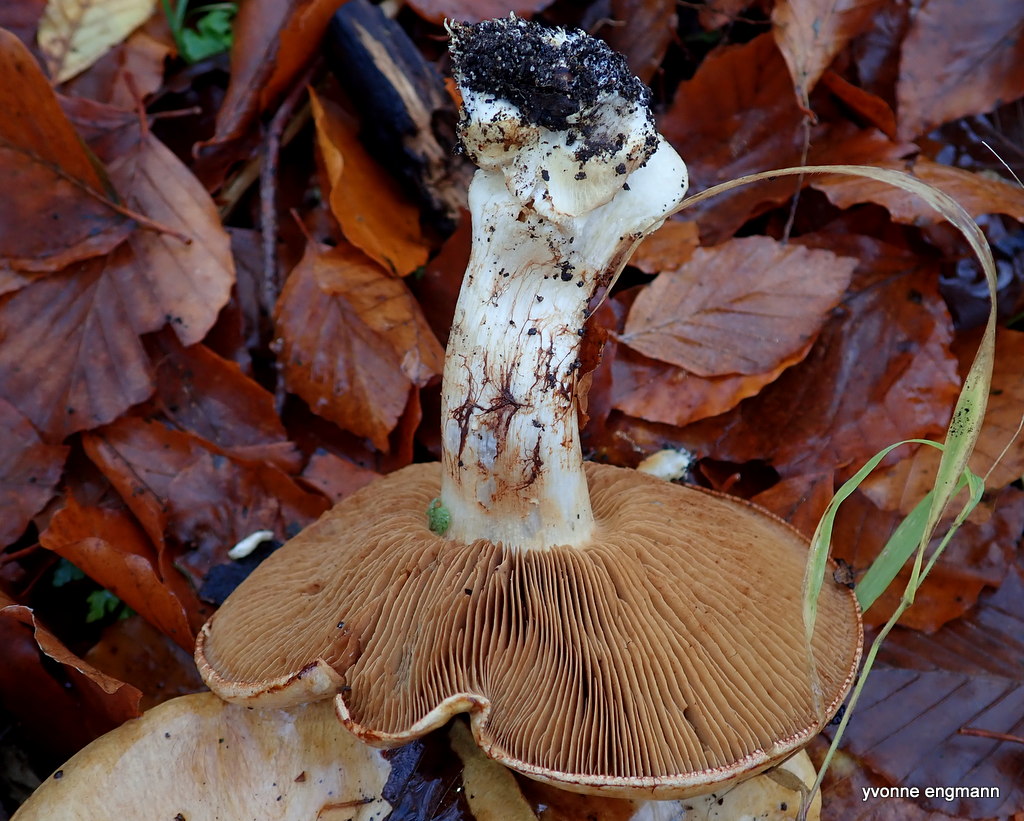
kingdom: Fungi
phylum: Basidiomycota
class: Agaricomycetes
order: Agaricales
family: Cortinariaceae
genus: Cortinarius
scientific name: Cortinarius
